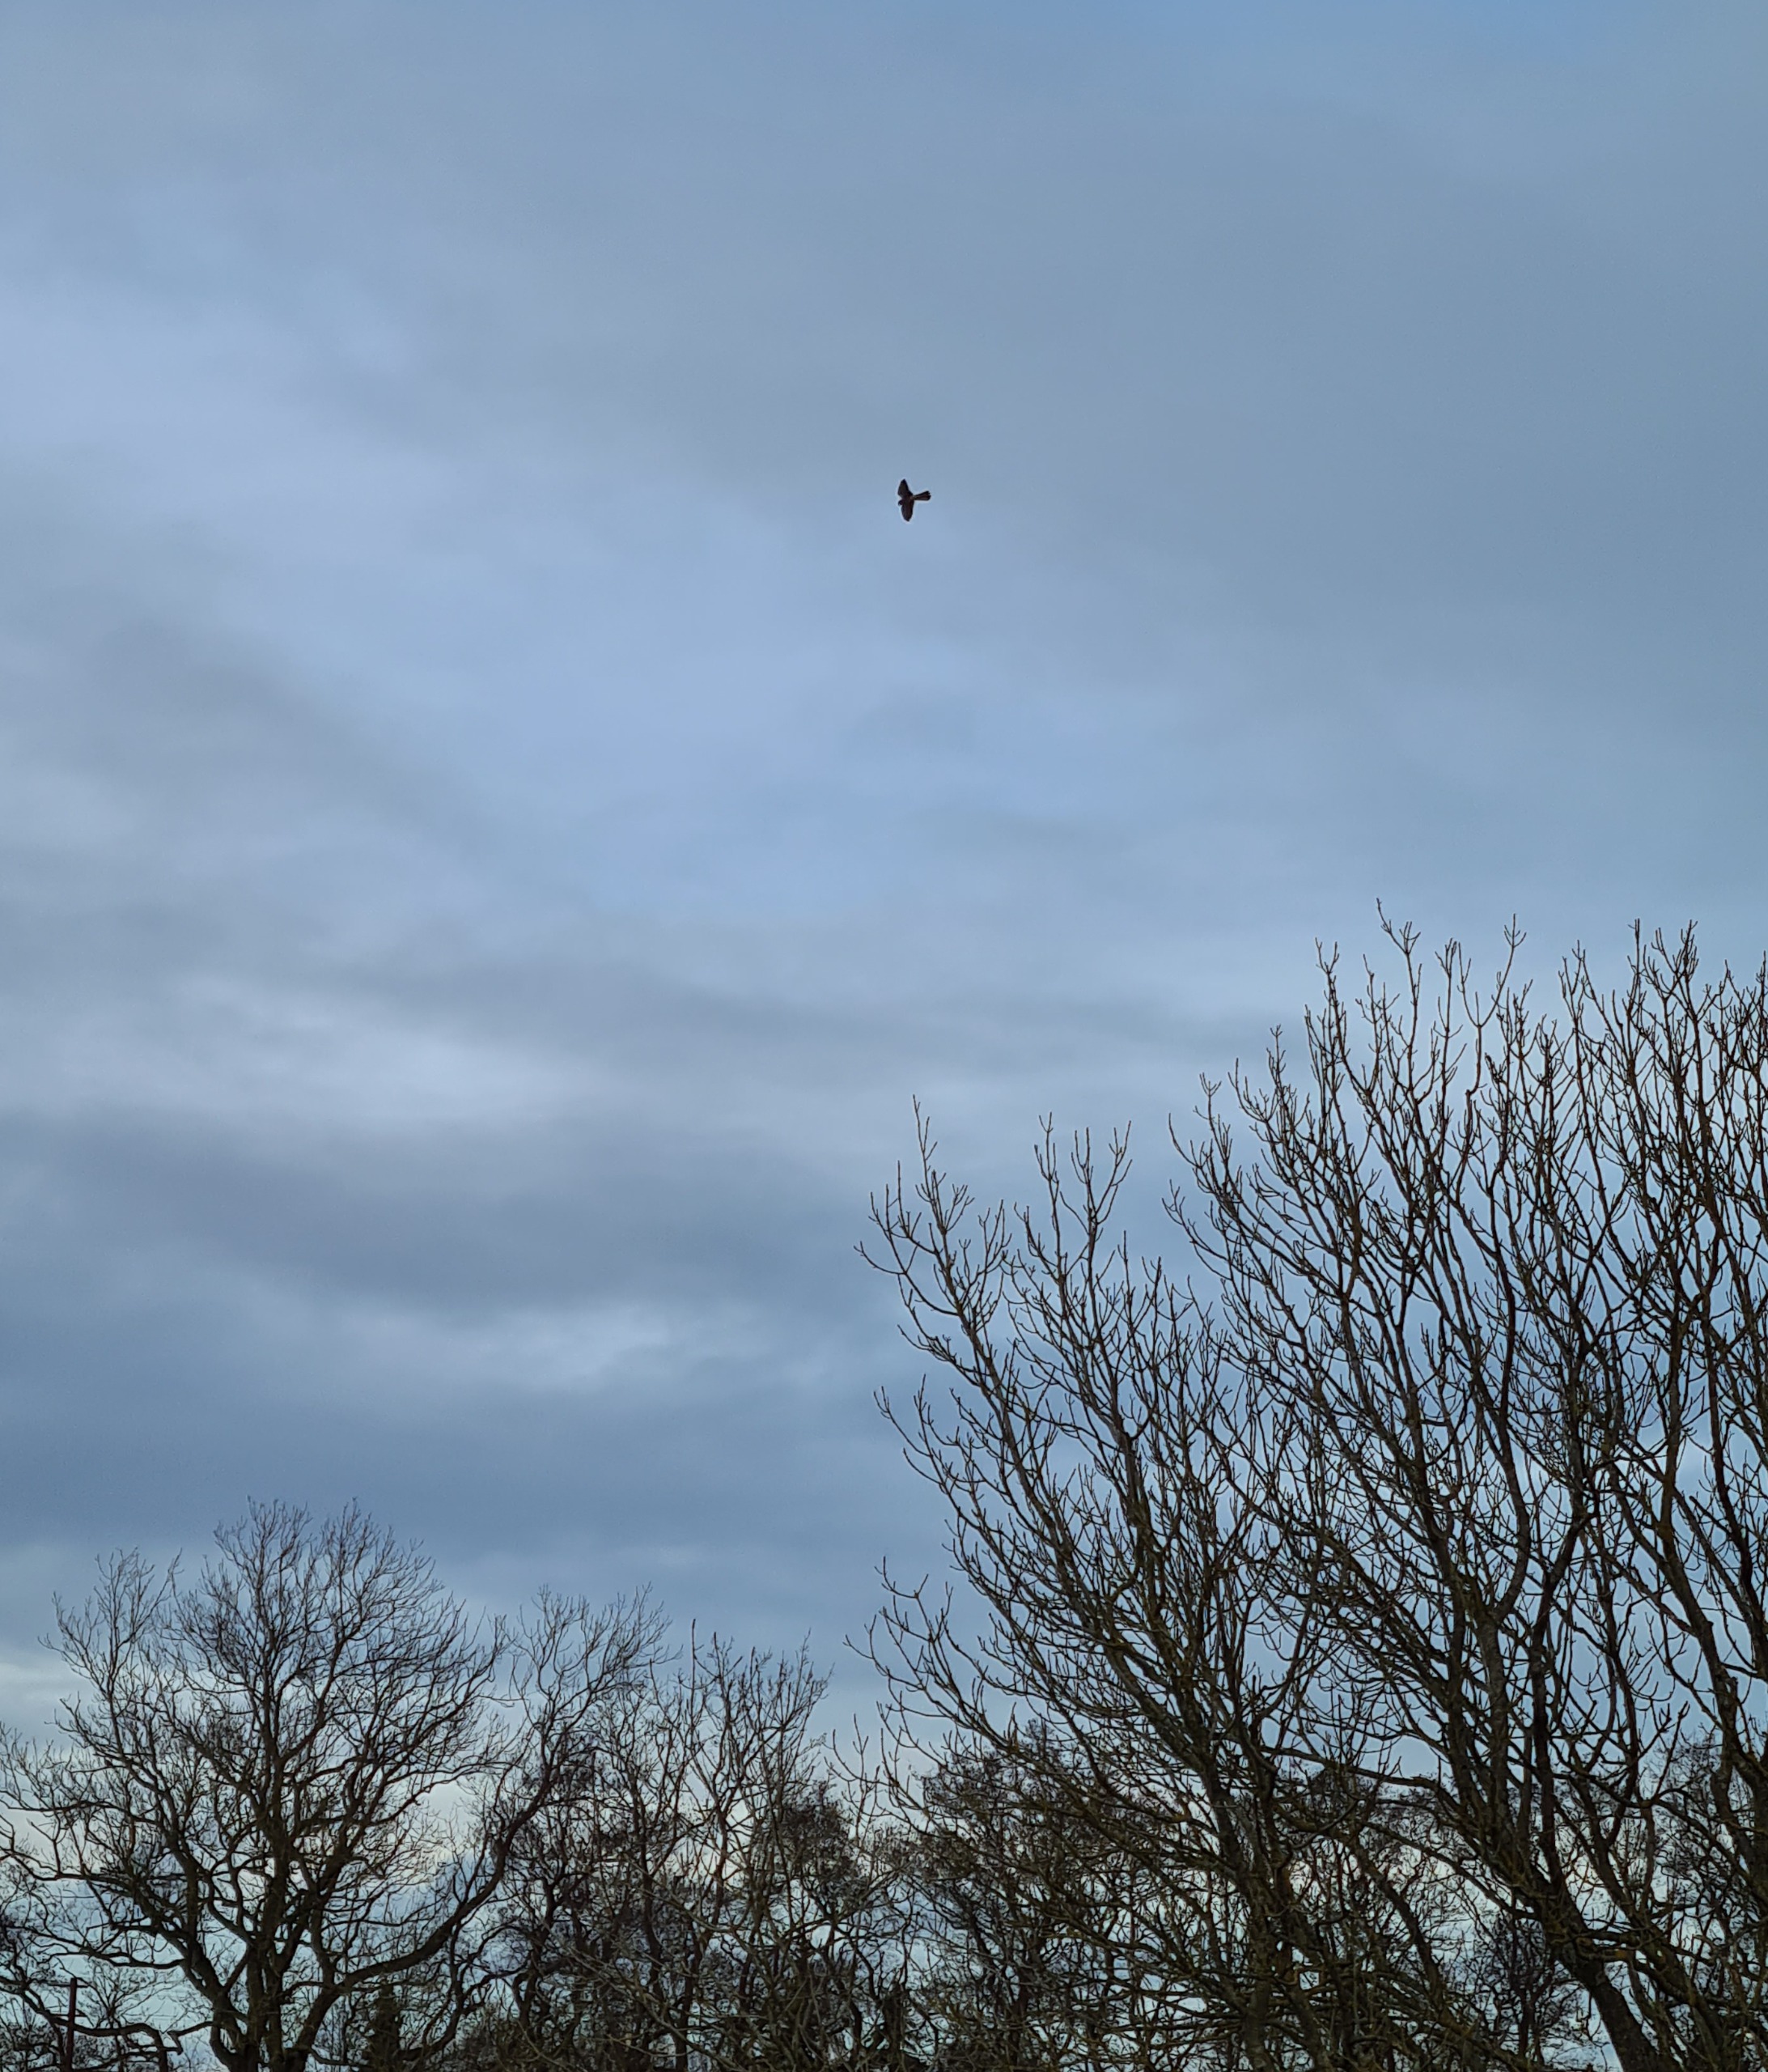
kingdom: Animalia
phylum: Chordata
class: Aves
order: Falconiformes
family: Falconidae
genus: Falco
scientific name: Falco tinnunculus
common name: Tårnfalk
